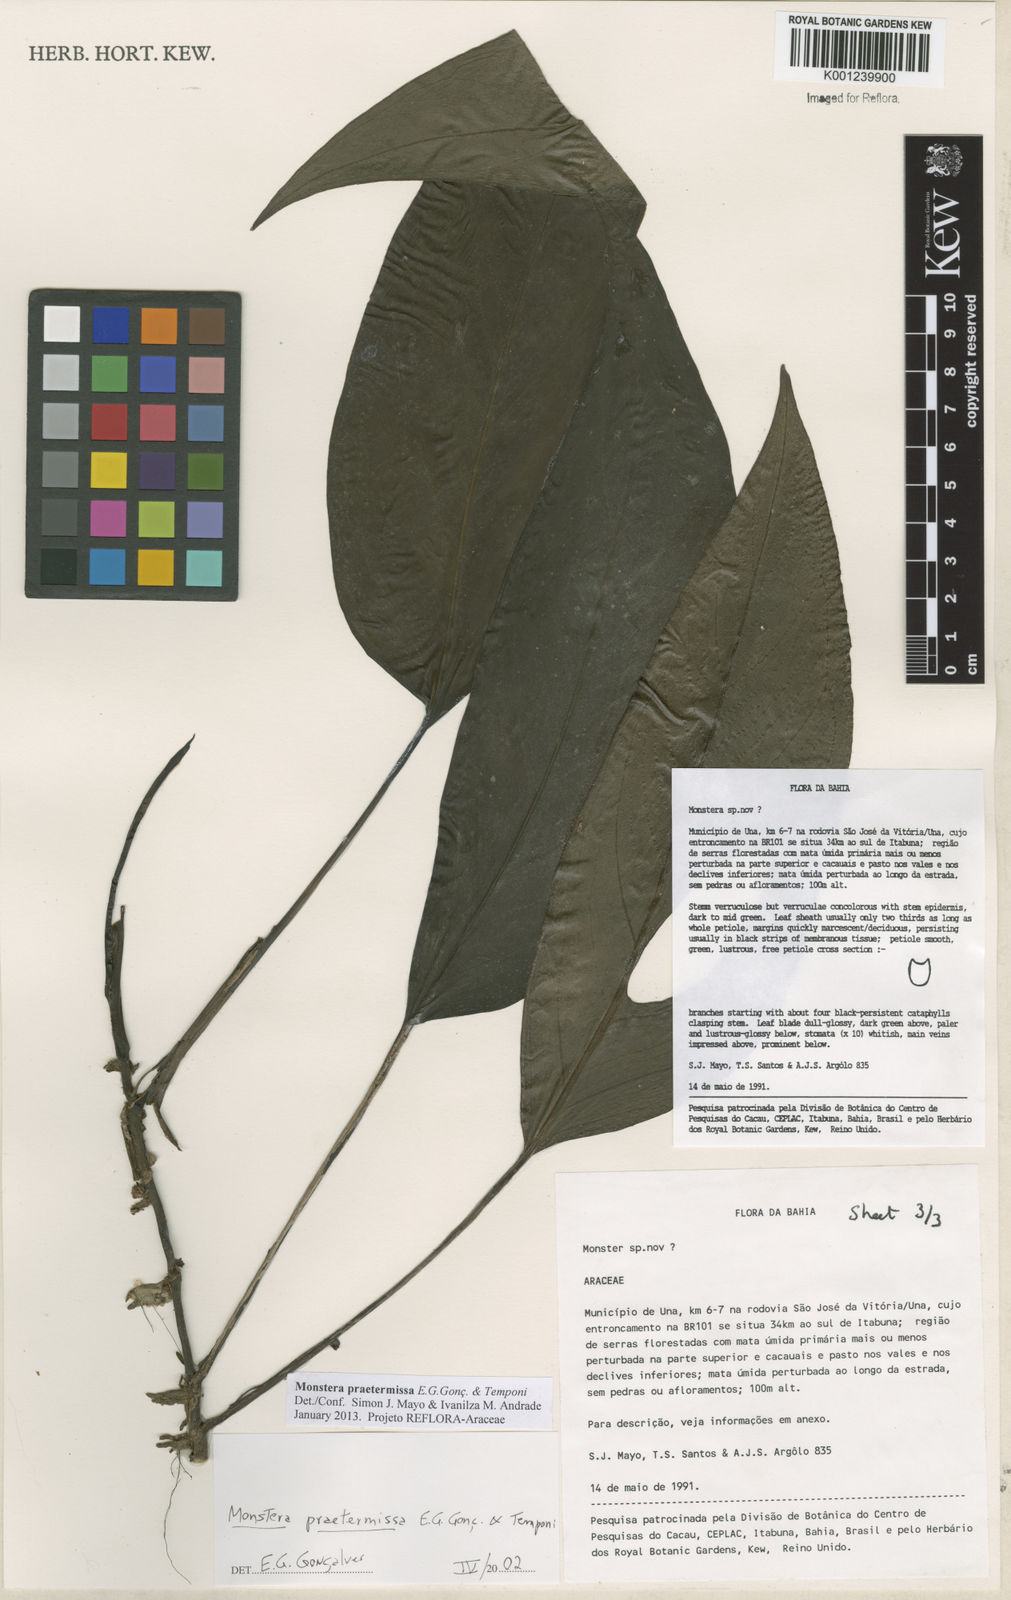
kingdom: Plantae
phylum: Tracheophyta
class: Liliopsida
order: Alismatales
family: Araceae
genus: Monstera
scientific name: Monstera praetermissa
